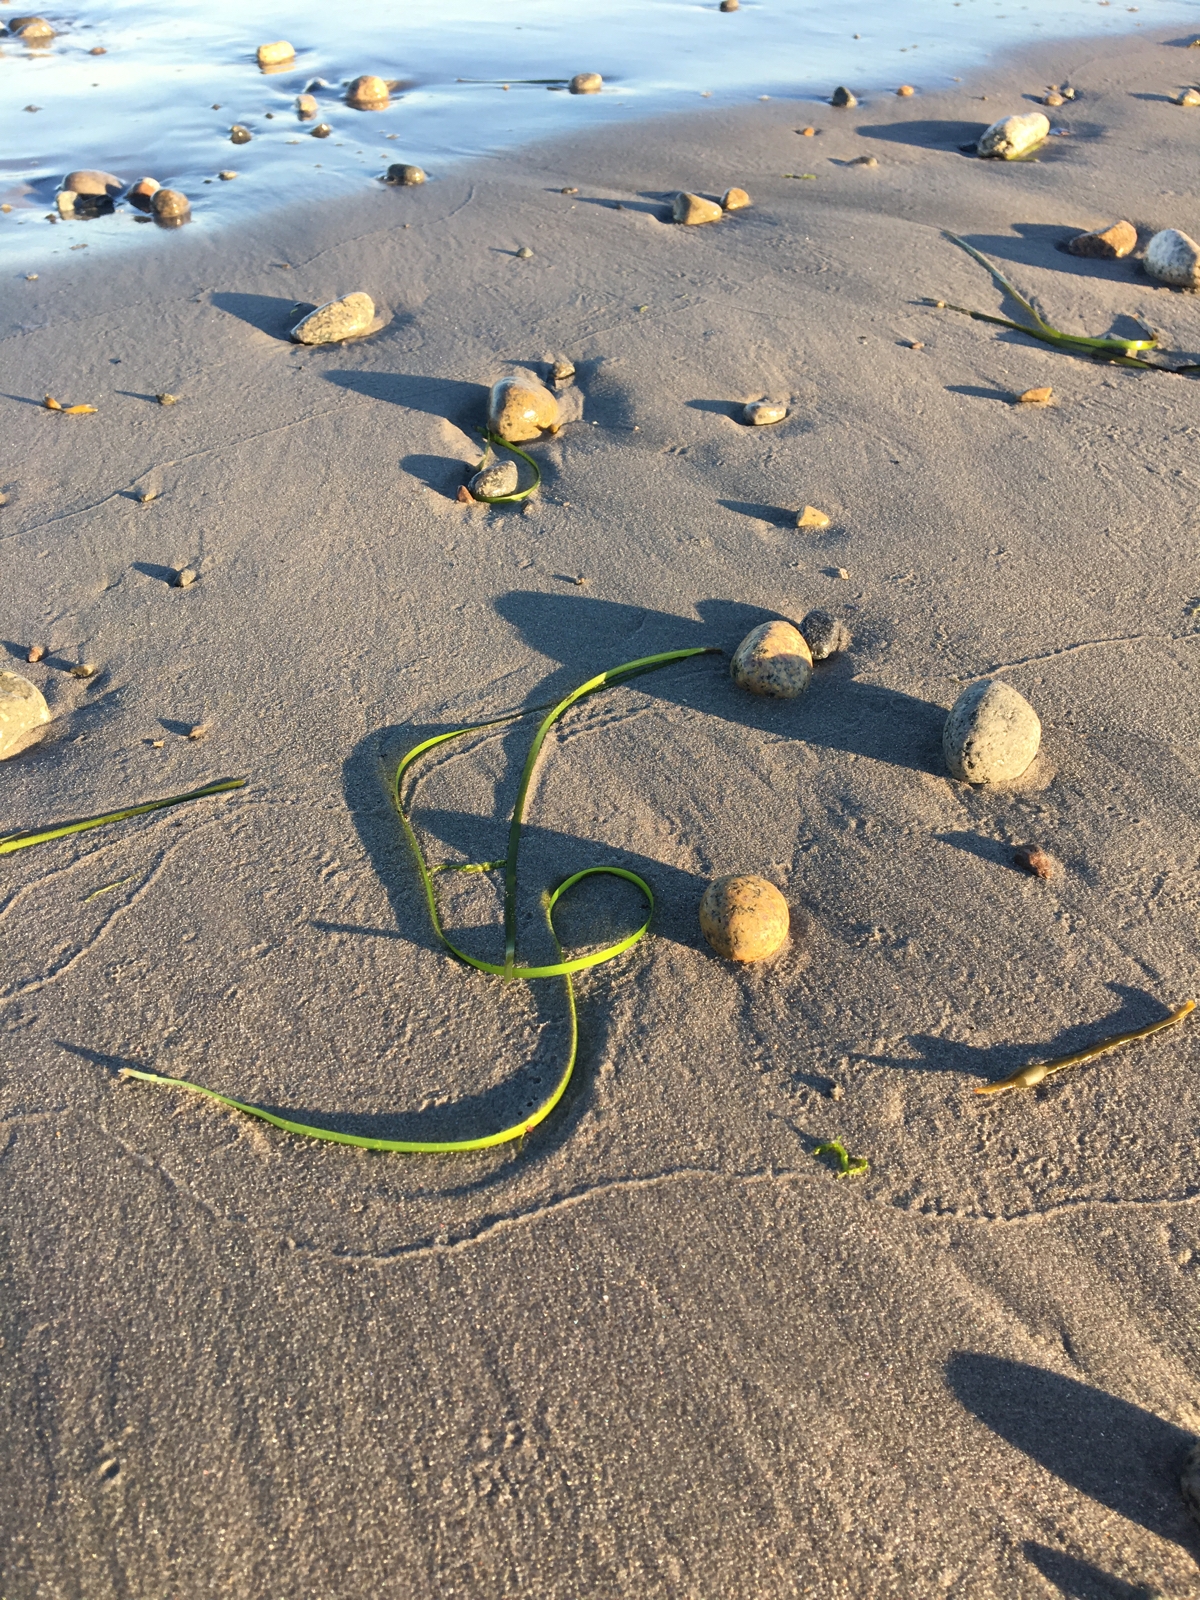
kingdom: Plantae
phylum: Tracheophyta
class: Liliopsida
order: Alismatales
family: Zosteraceae
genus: Zostera
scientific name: Zostera marina
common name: Eelgrass
